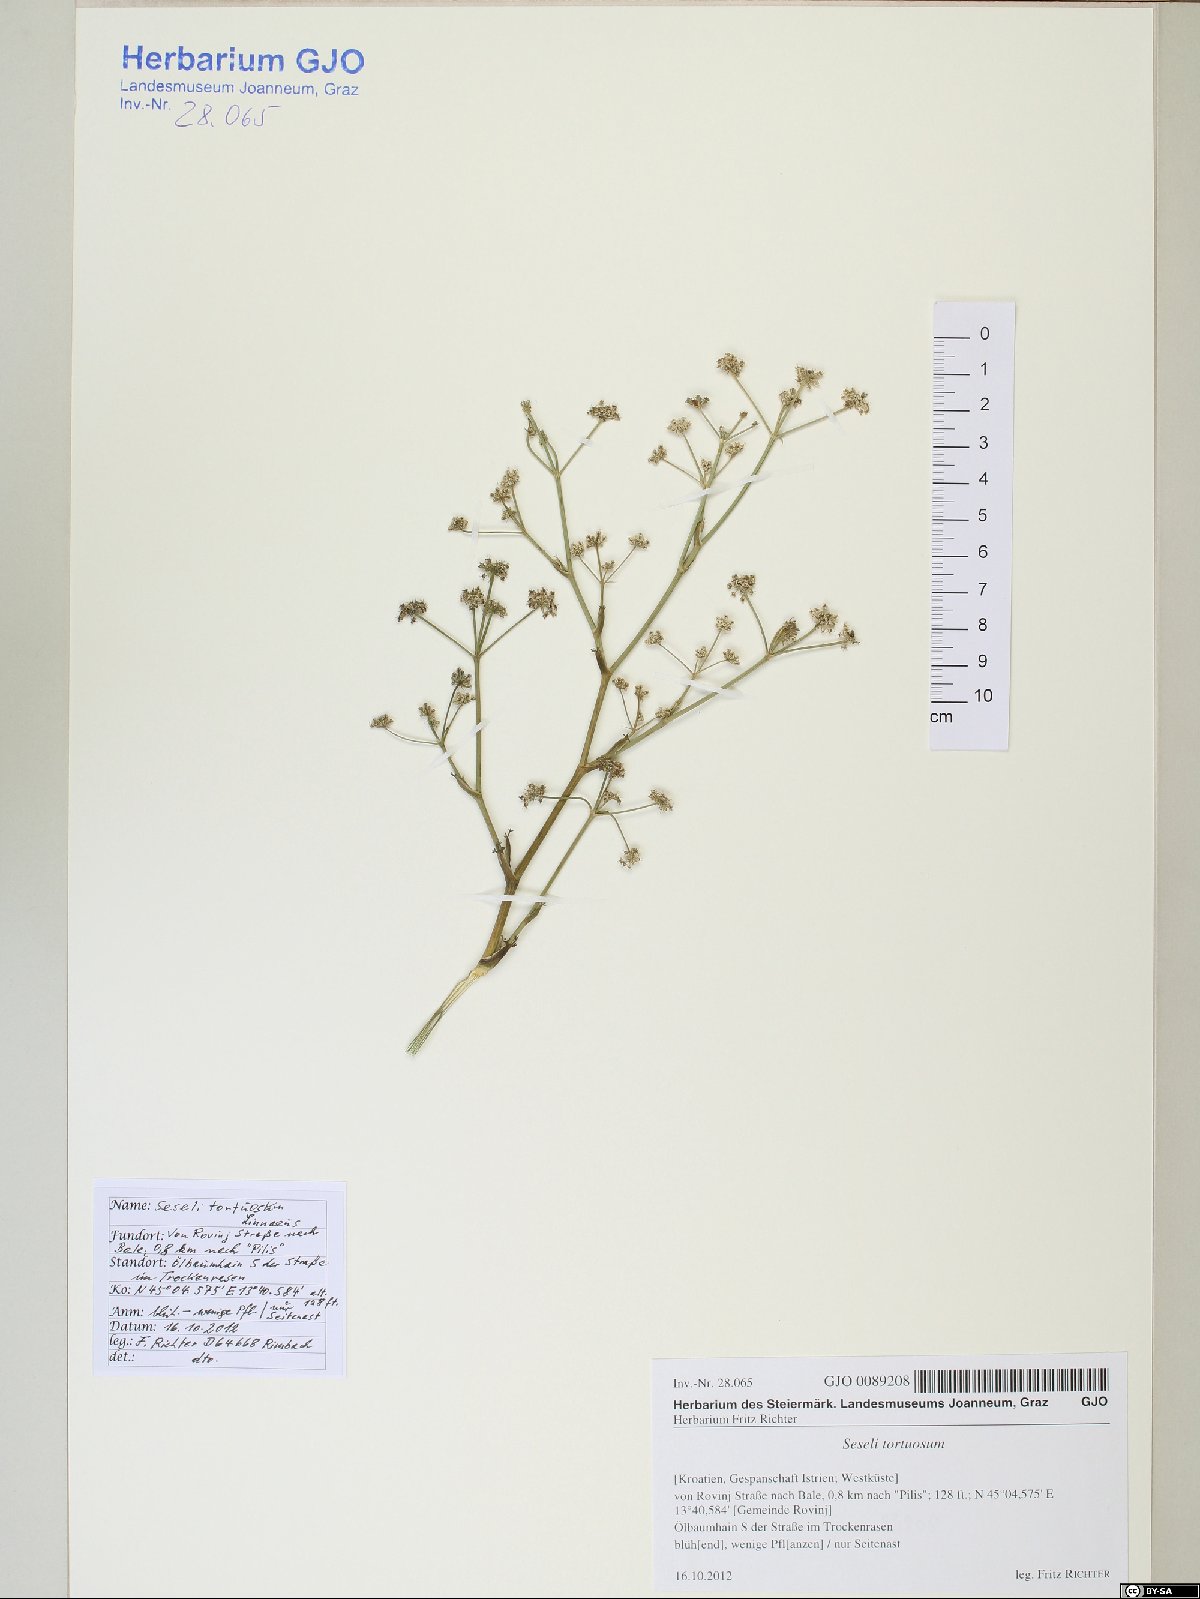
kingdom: Plantae
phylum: Tracheophyta
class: Magnoliopsida
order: Apiales
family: Apiaceae
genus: Seseli
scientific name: Seseli tortuosum
